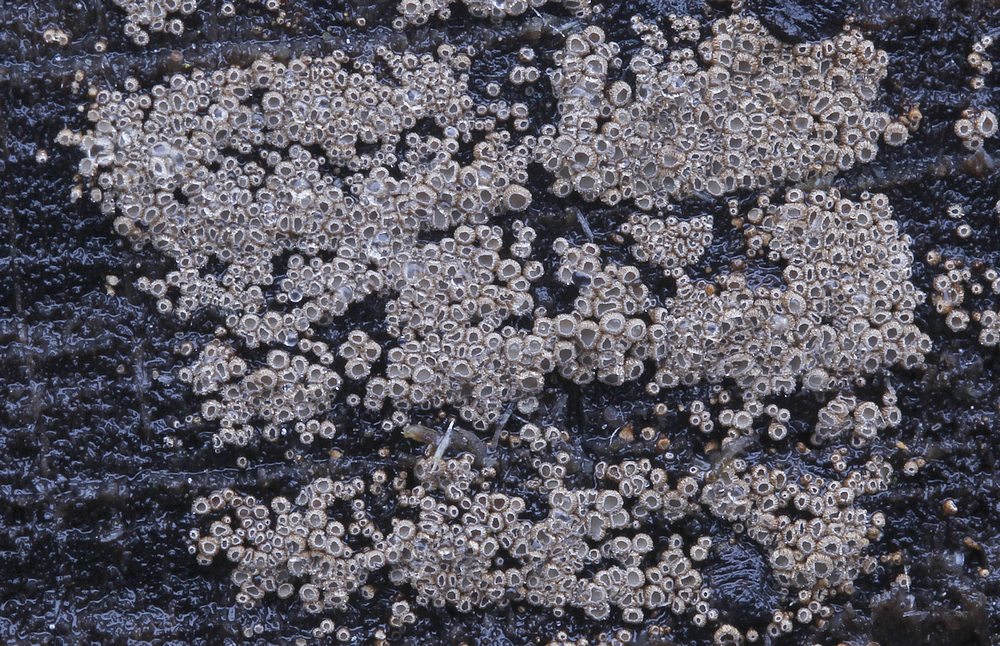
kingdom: Fungi
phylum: Basidiomycota
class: Agaricomycetes
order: Agaricales
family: Niaceae
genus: Merismodes
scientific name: Merismodes anomala
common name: almindelig læderskål
